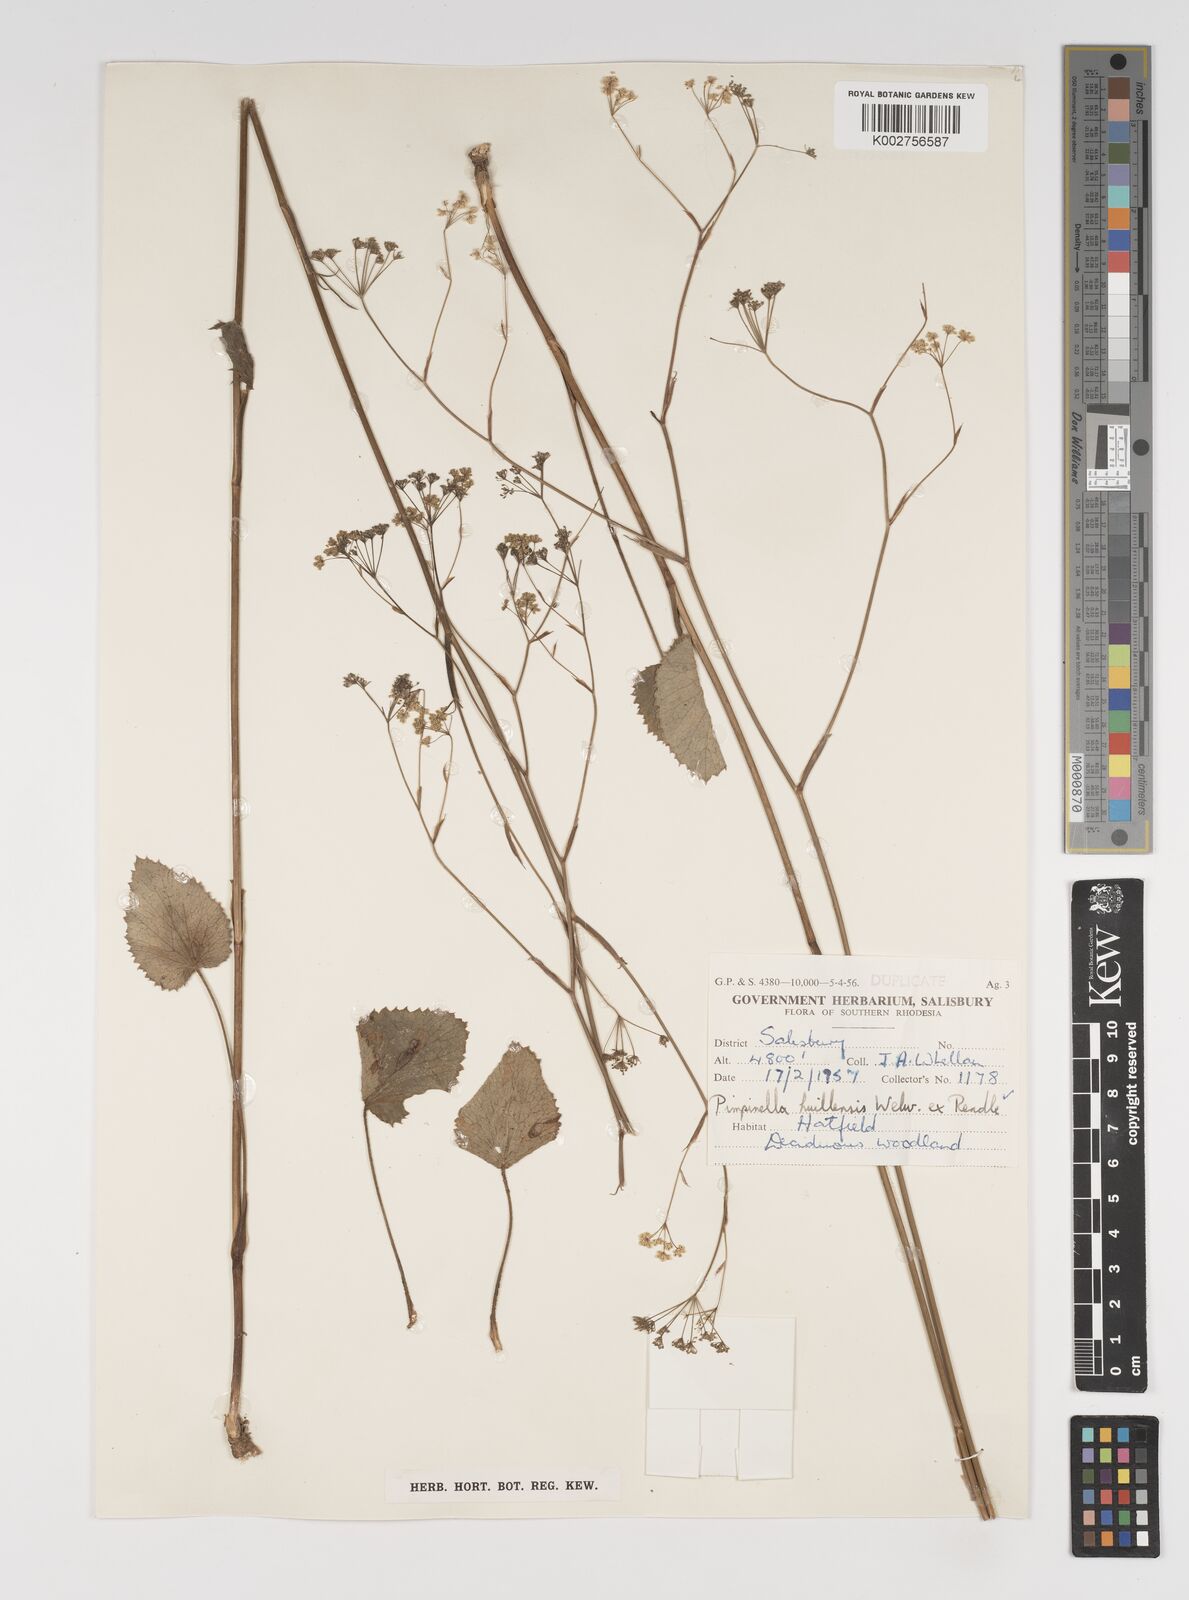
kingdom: Plantae
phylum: Tracheophyta
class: Magnoliopsida
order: Apiales
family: Apiaceae
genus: Pimpinella
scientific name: Pimpinella huillensis
